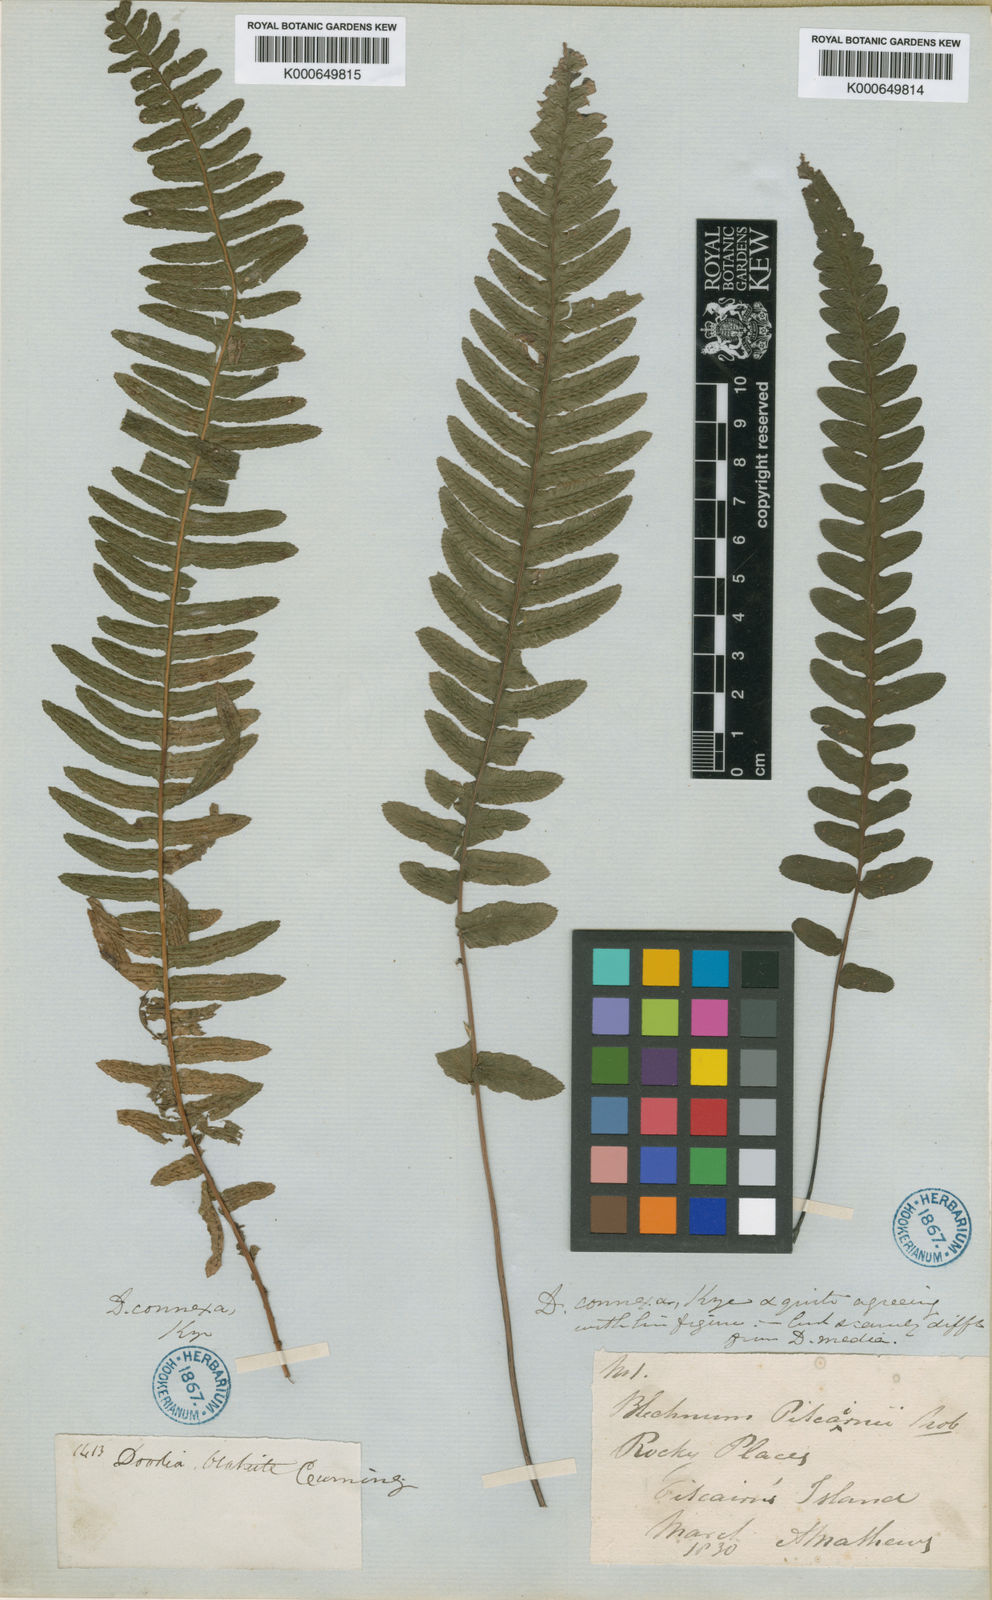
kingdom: Plantae
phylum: Tracheophyta
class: Polypodiopsida
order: Polypodiales
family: Blechnaceae
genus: Doodia
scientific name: Doodia media
